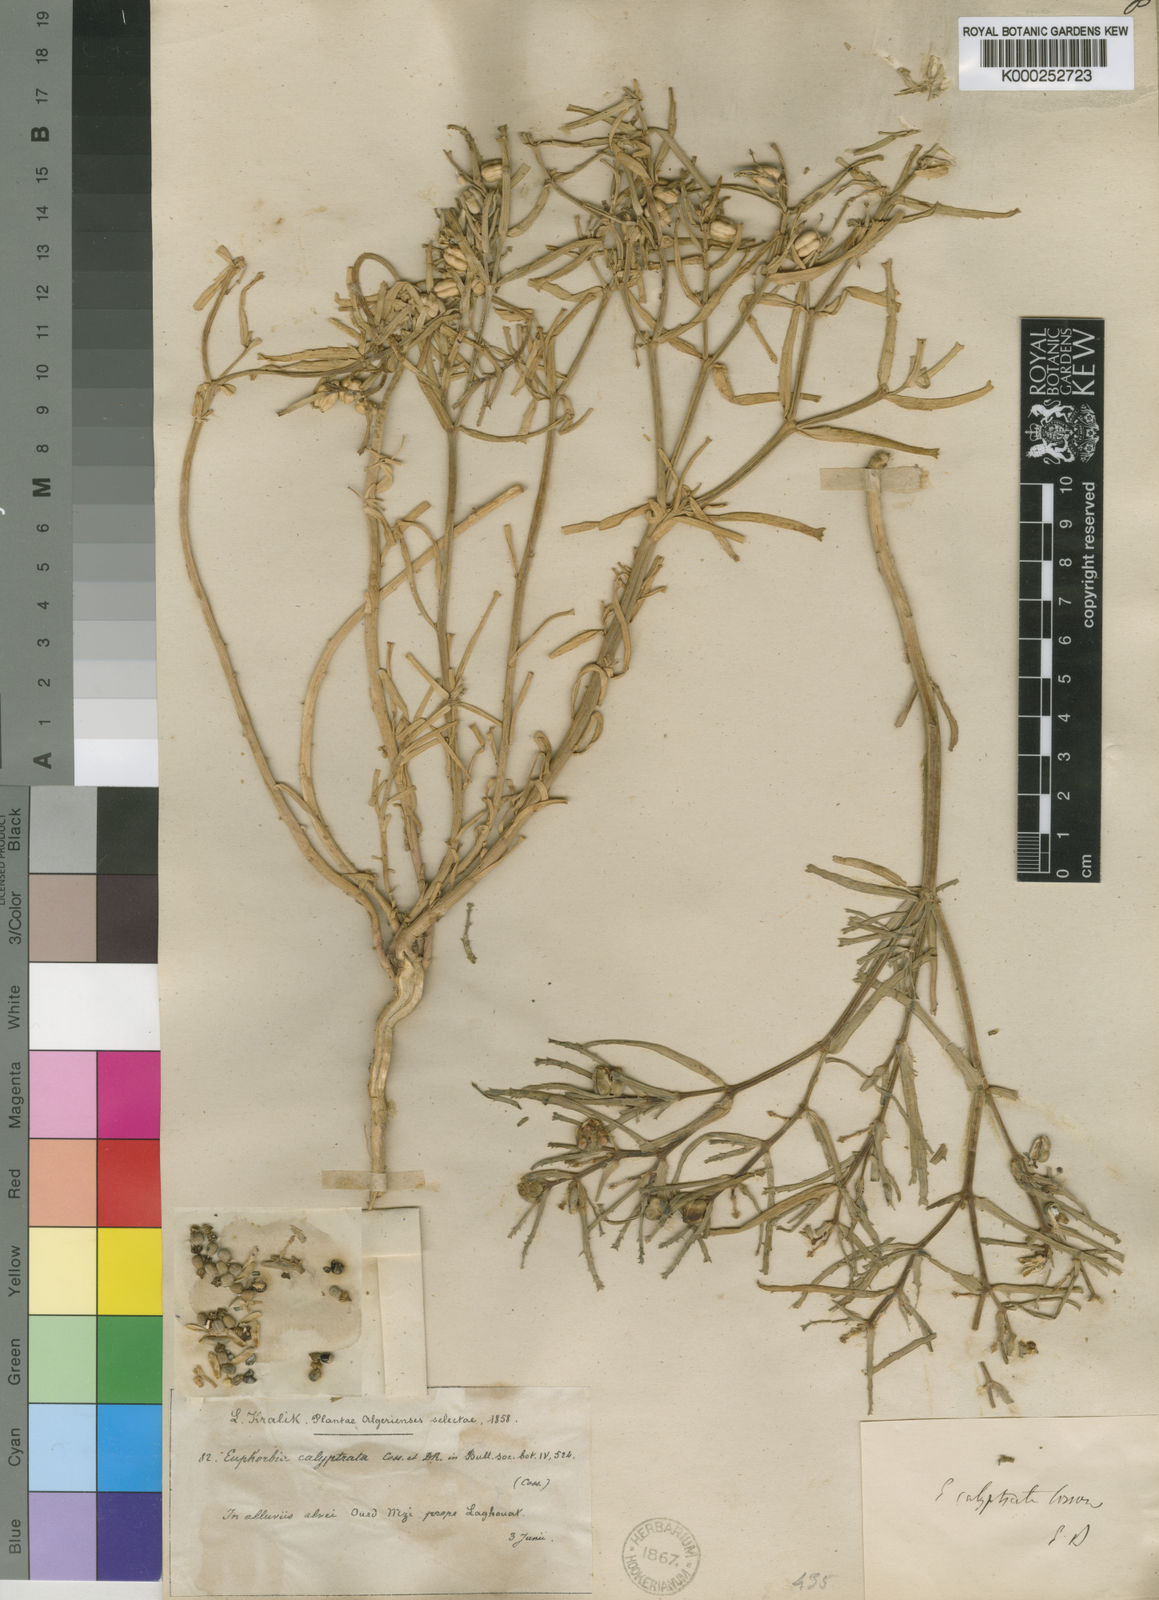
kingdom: Plantae
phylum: Tracheophyta
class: Magnoliopsida
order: Malpighiales
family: Euphorbiaceae
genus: Euphorbia
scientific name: Euphorbia calyptrata
